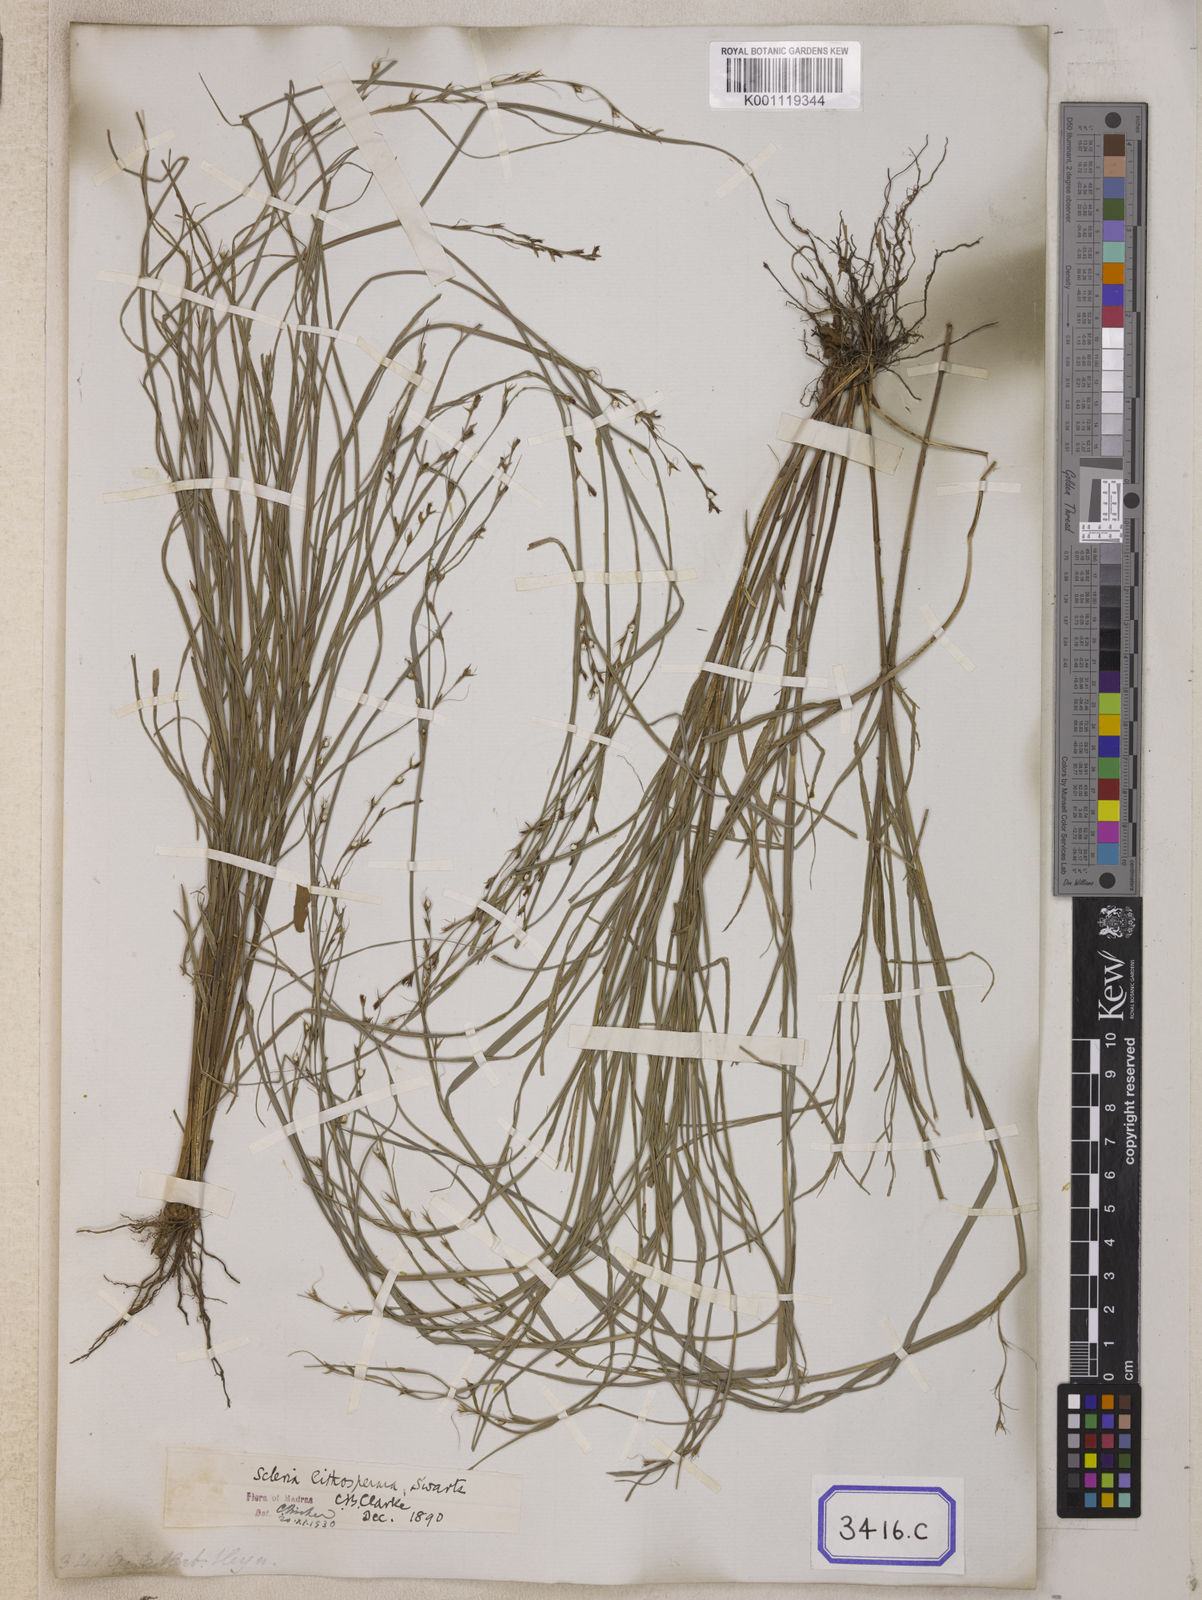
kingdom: Plantae
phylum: Tracheophyta
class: Liliopsida
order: Poales
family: Cyperaceae
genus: Scleria
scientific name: Scleria
